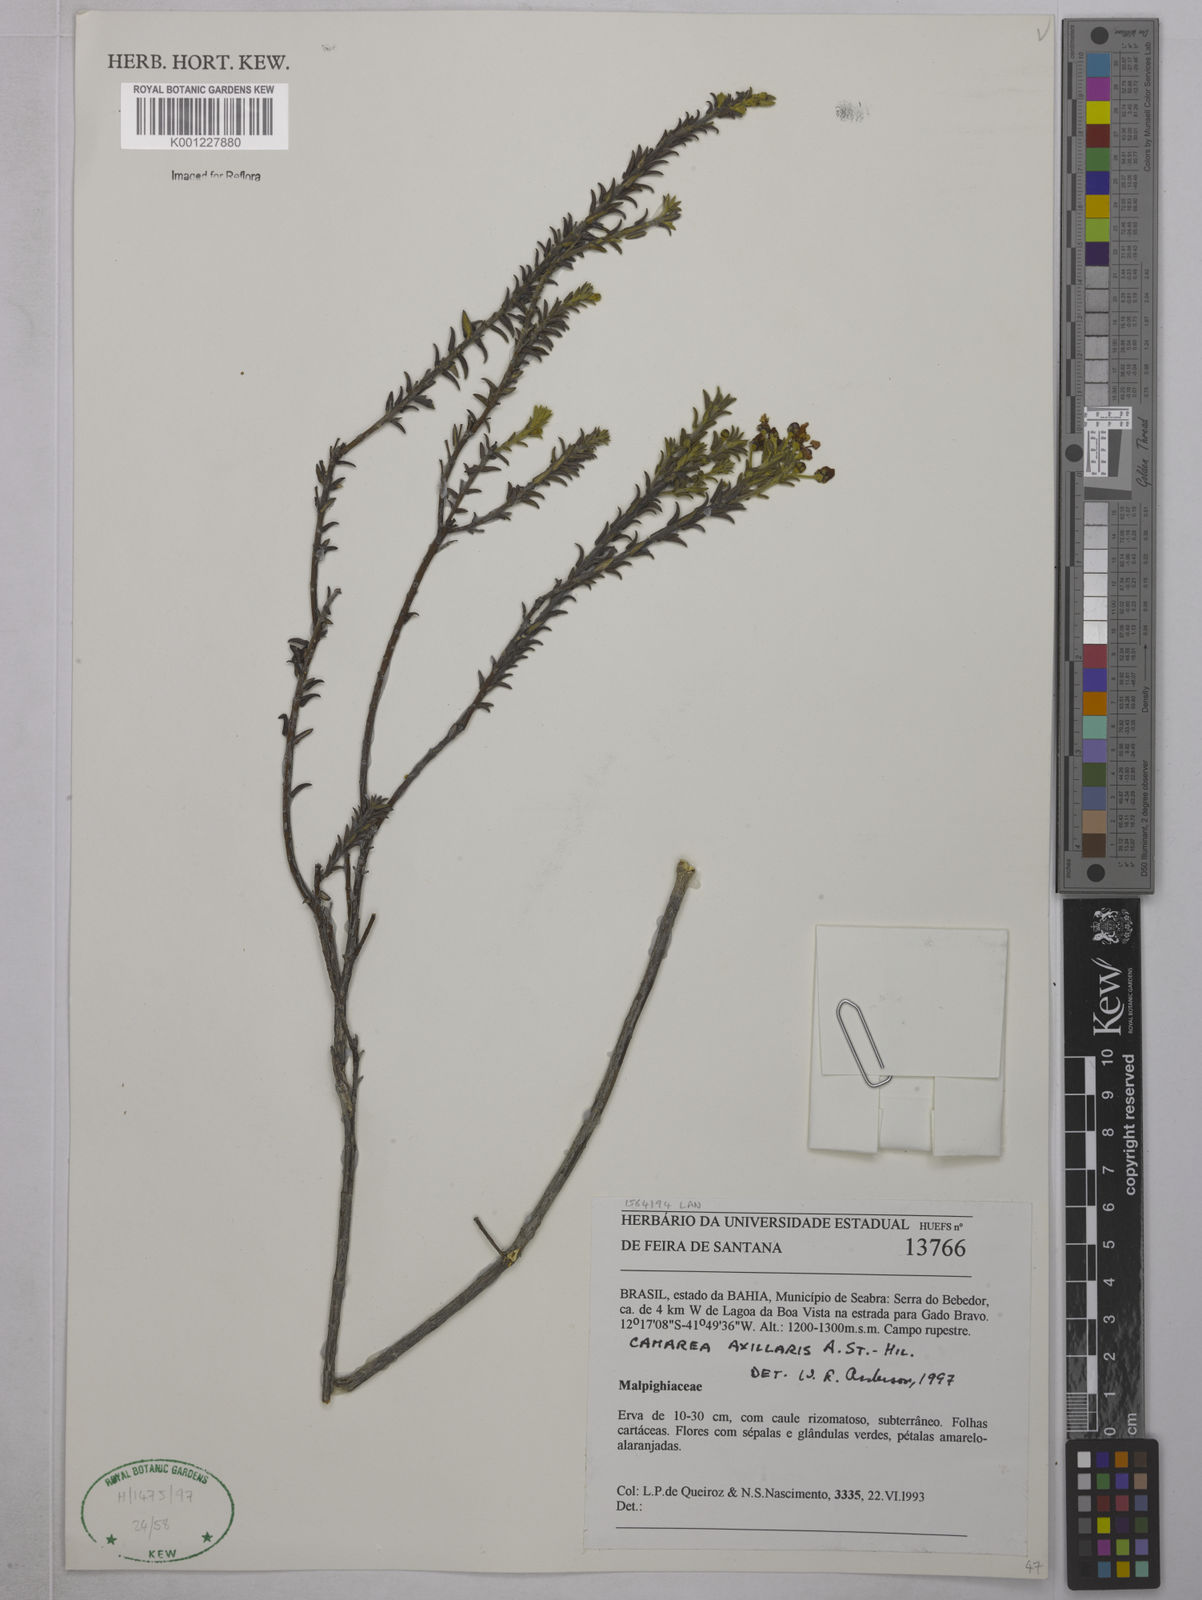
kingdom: Plantae
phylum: Tracheophyta
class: Magnoliopsida
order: Malpighiales
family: Malpighiaceae
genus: Camarea
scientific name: Camarea axillaris
